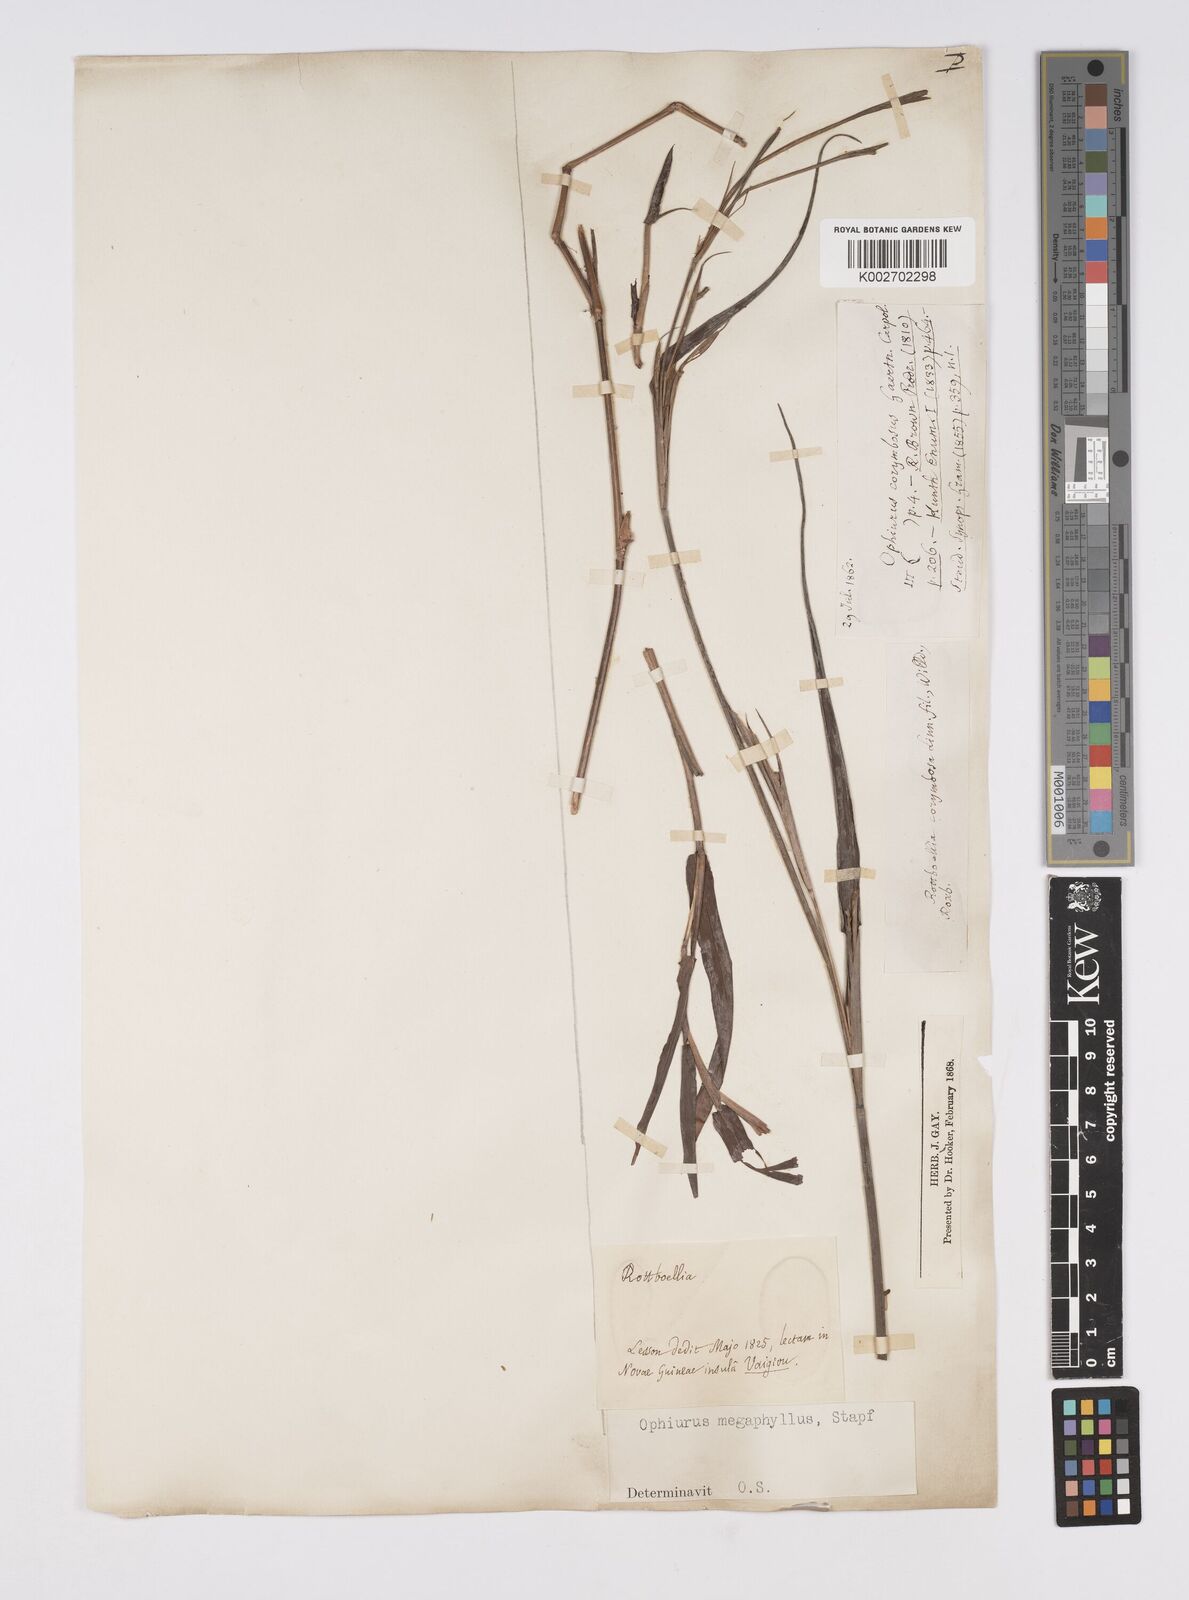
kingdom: Plantae
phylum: Tracheophyta
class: Liliopsida
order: Poales
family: Poaceae
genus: Ophiuros
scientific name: Ophiuros megaphyllus
